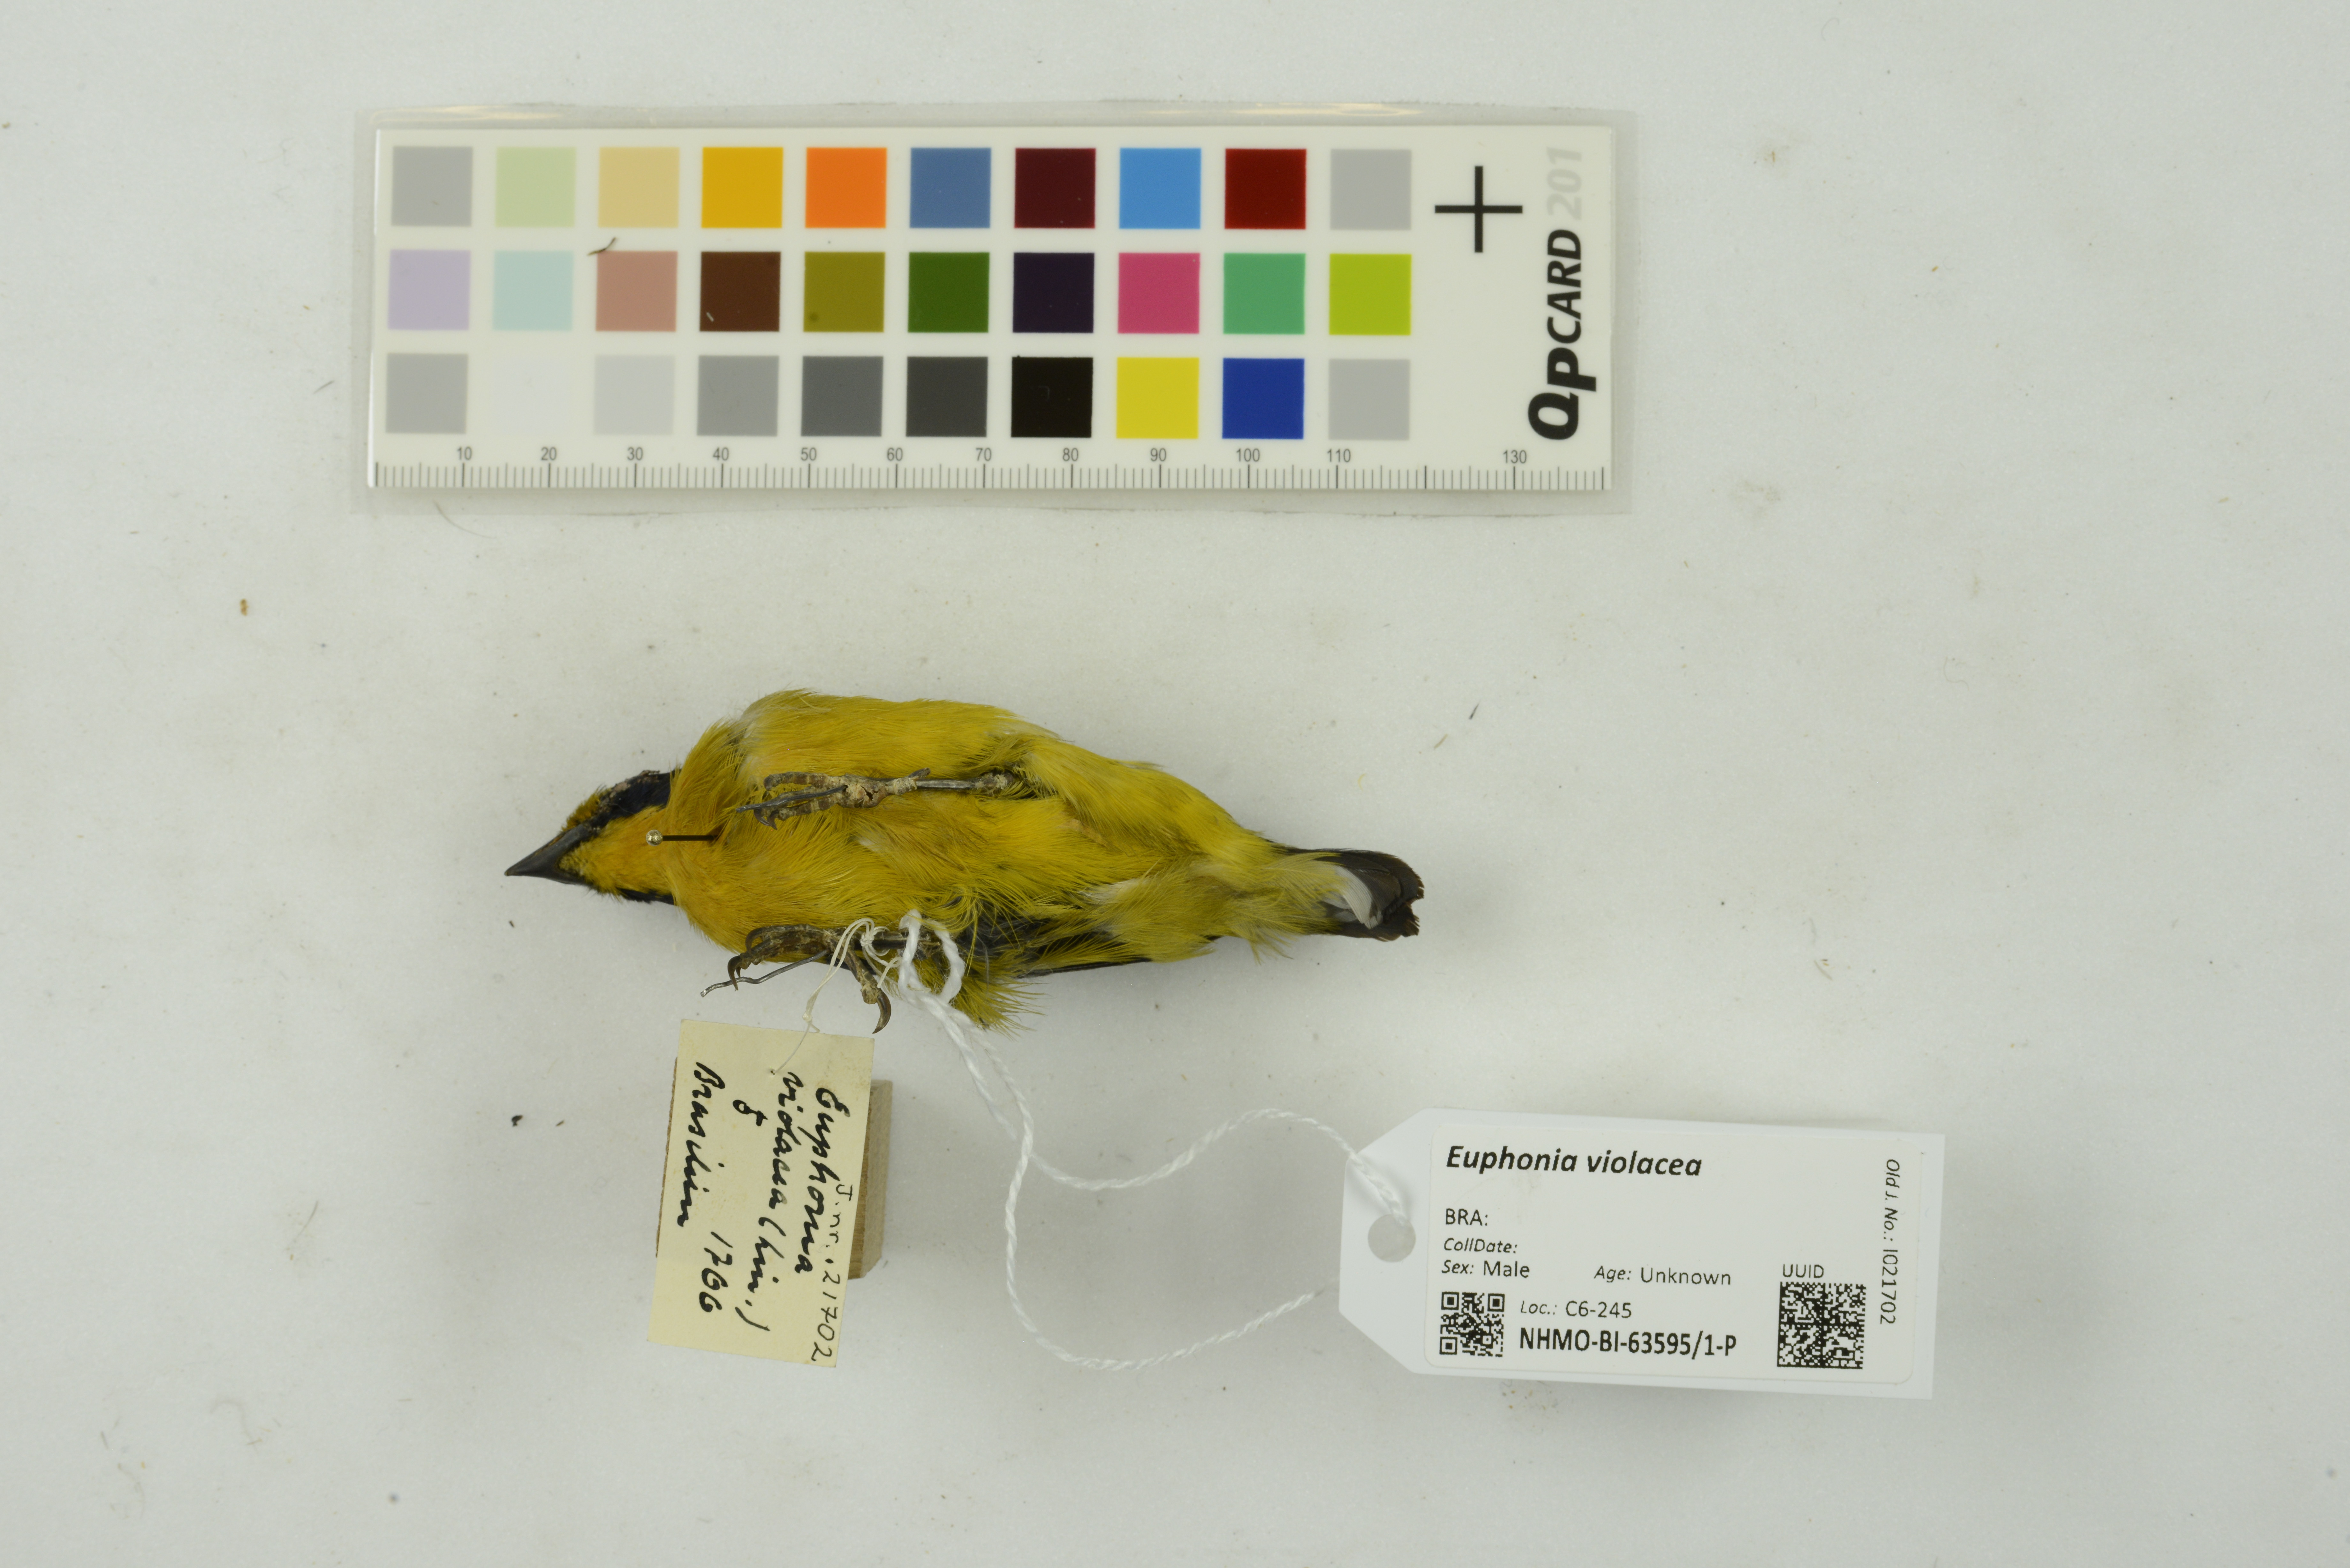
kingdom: Animalia
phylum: Chordata
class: Aves
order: Passeriformes
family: Fringillidae
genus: Euphonia
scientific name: Euphonia violacea
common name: Violaceous euphonia
